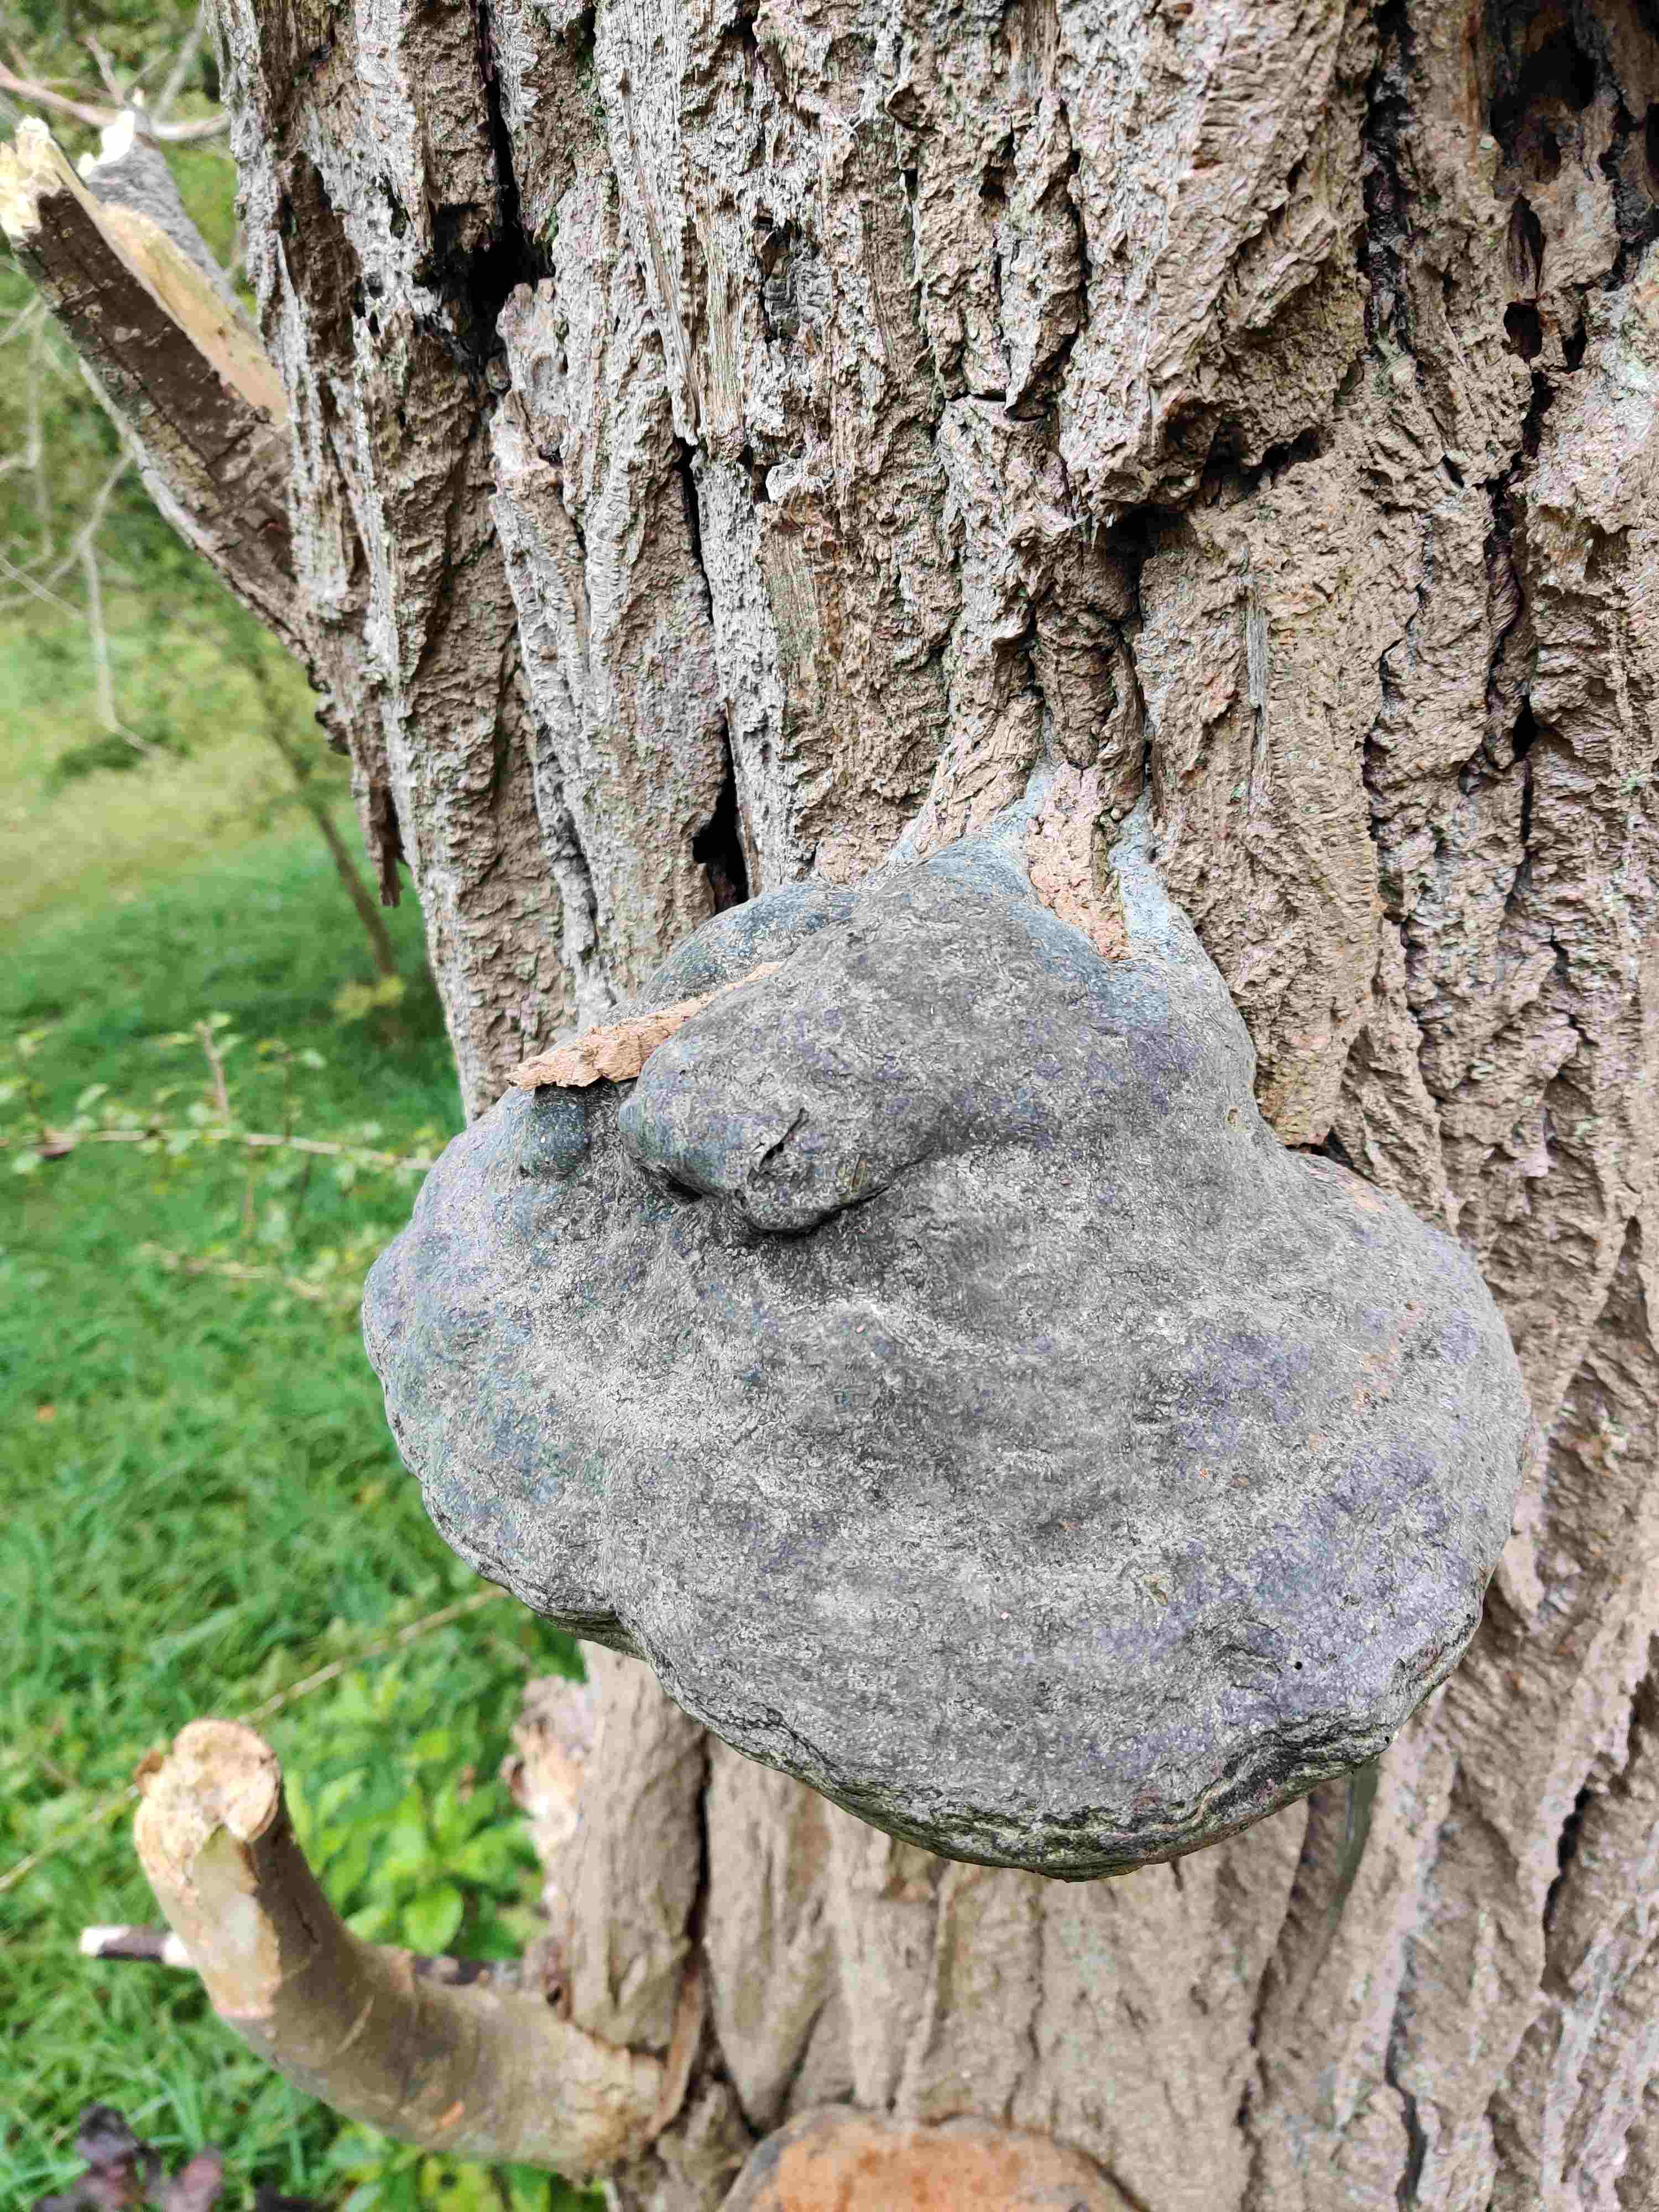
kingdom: Fungi
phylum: Basidiomycota
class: Agaricomycetes
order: Polyporales
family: Polyporaceae
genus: Fomes
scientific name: Fomes fomentarius
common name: tøndersvamp
